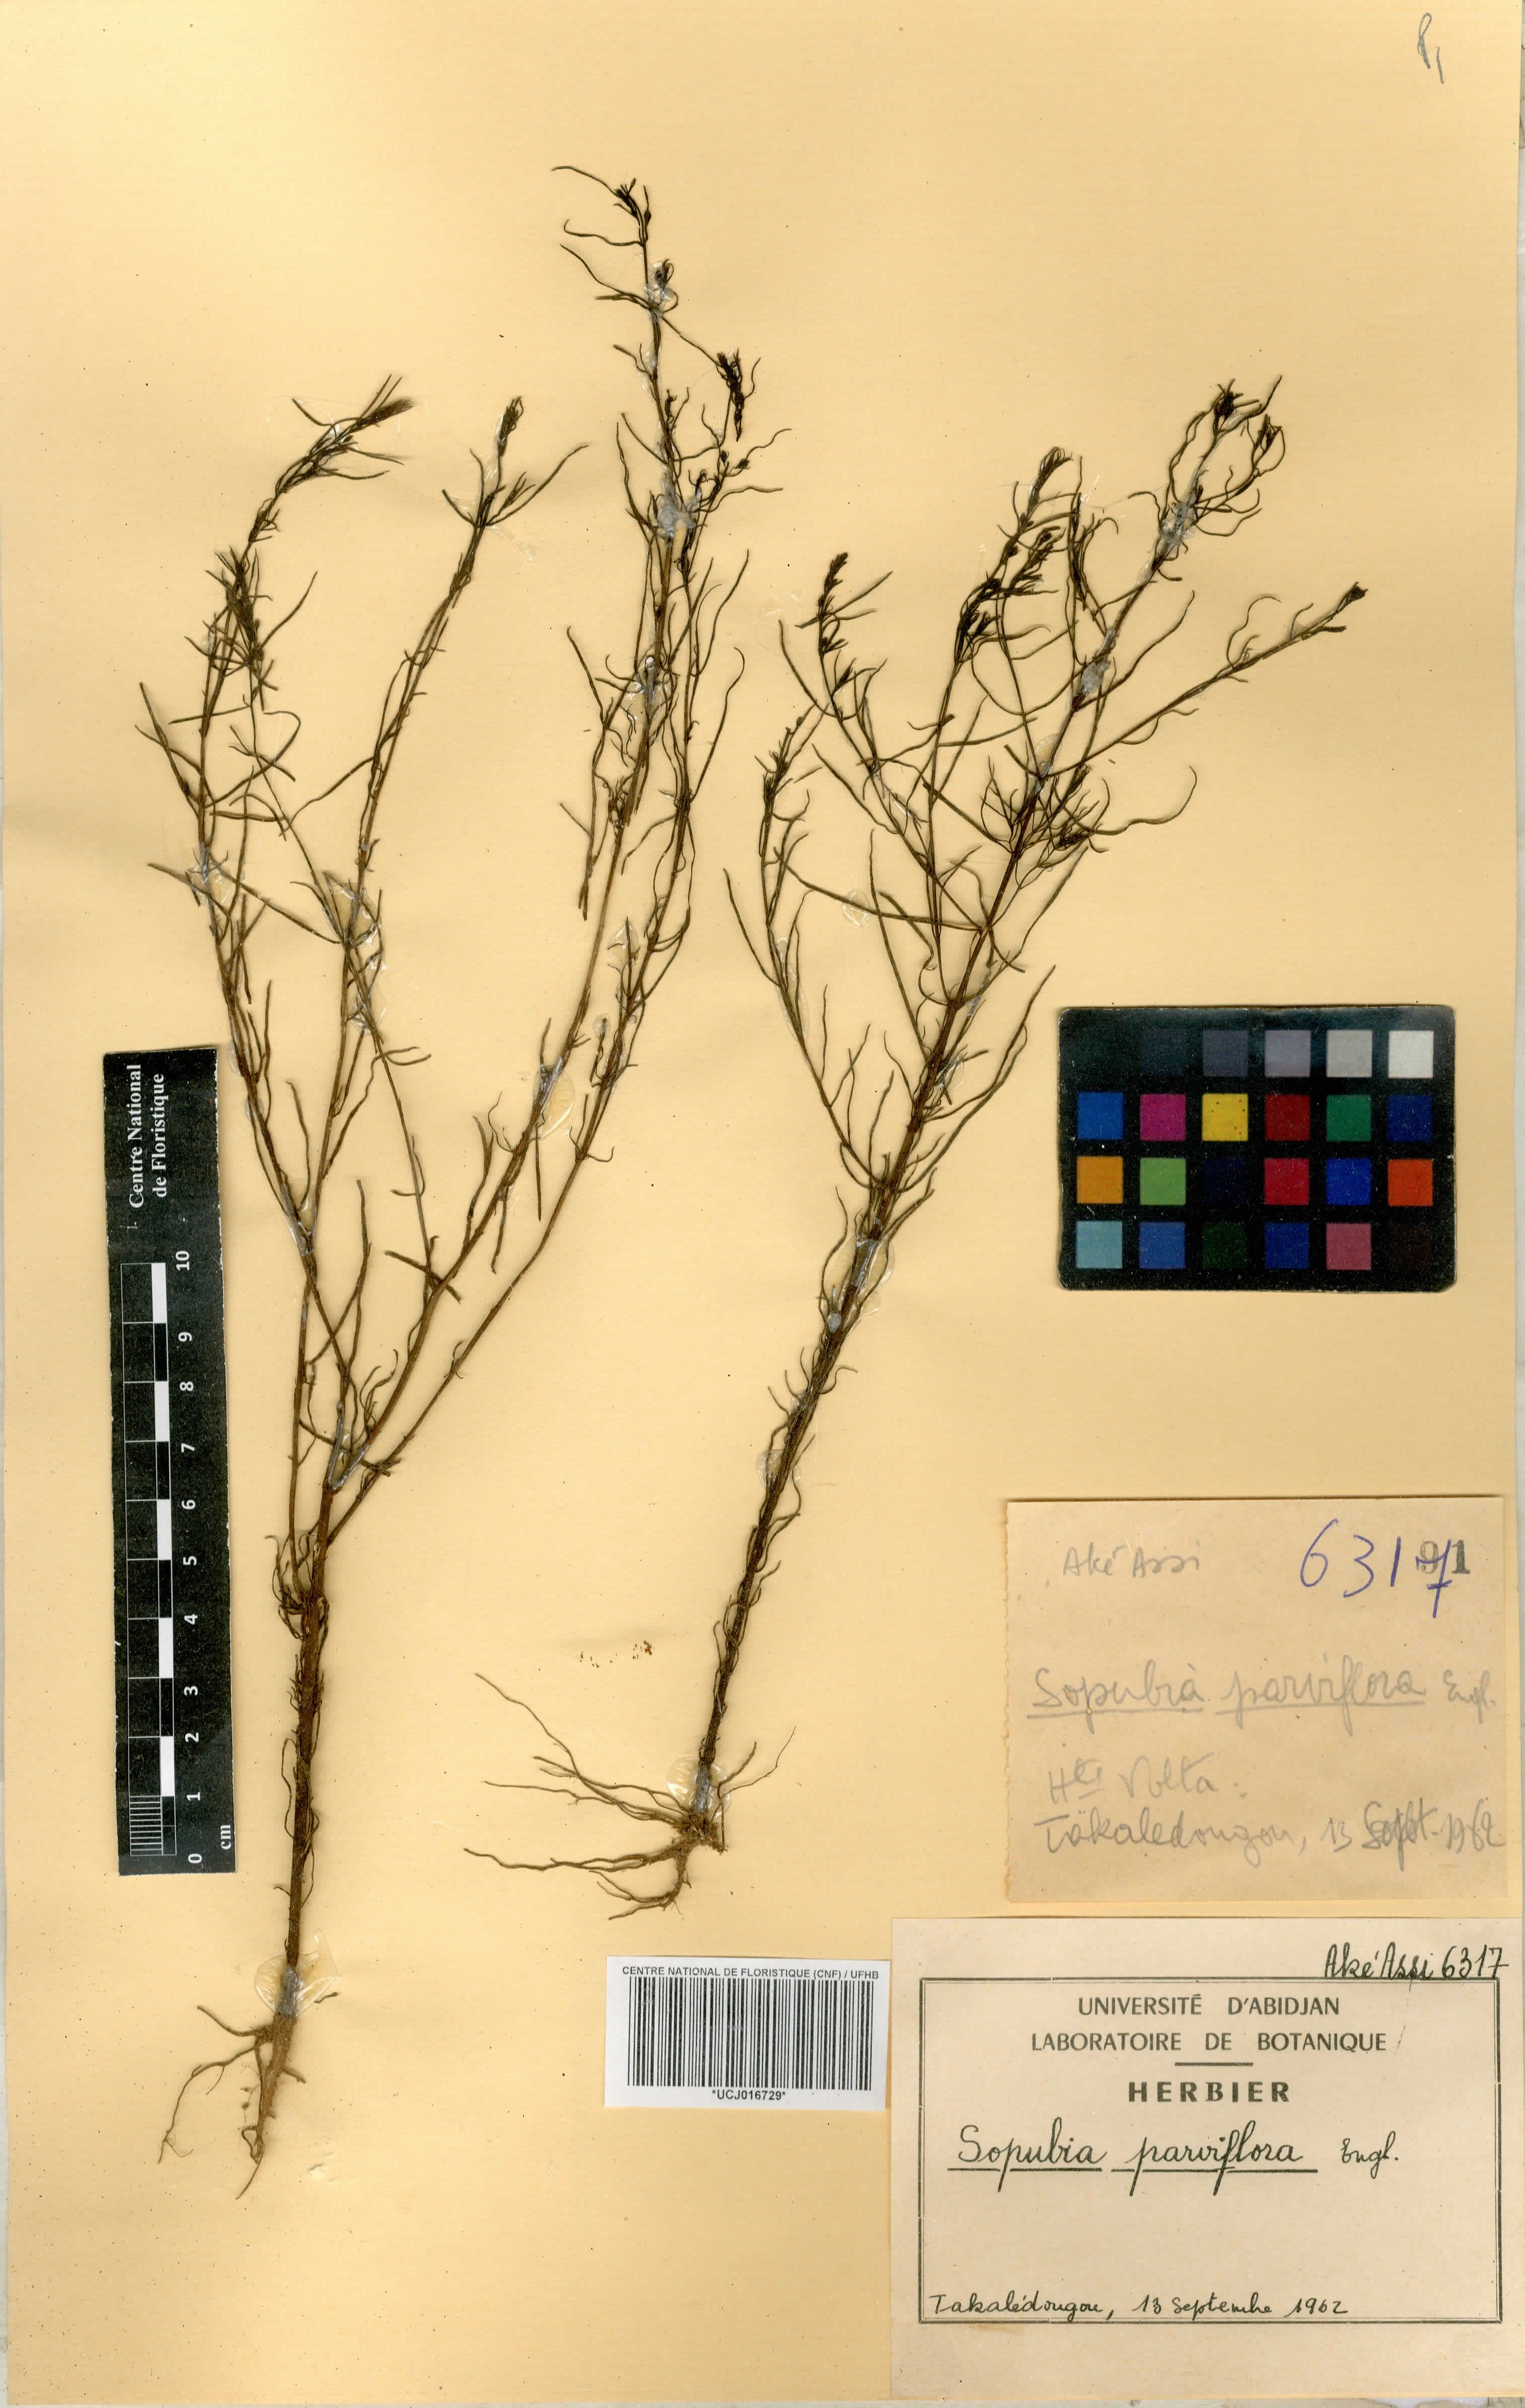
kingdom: Plantae
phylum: Tracheophyta
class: Magnoliopsida
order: Lamiales
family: Orobanchaceae
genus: Sopubia
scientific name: Sopubia parviflora
